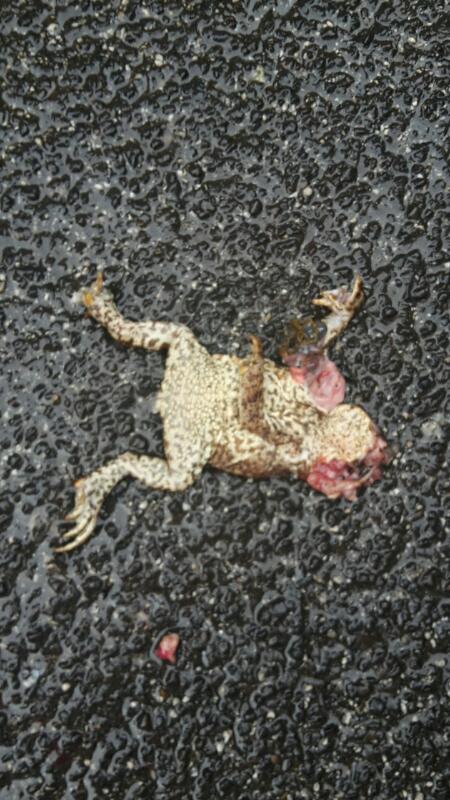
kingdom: Animalia
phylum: Chordata
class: Amphibia
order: Anura
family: Bufonidae
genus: Bufo
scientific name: Bufo bufo
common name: Common toad
